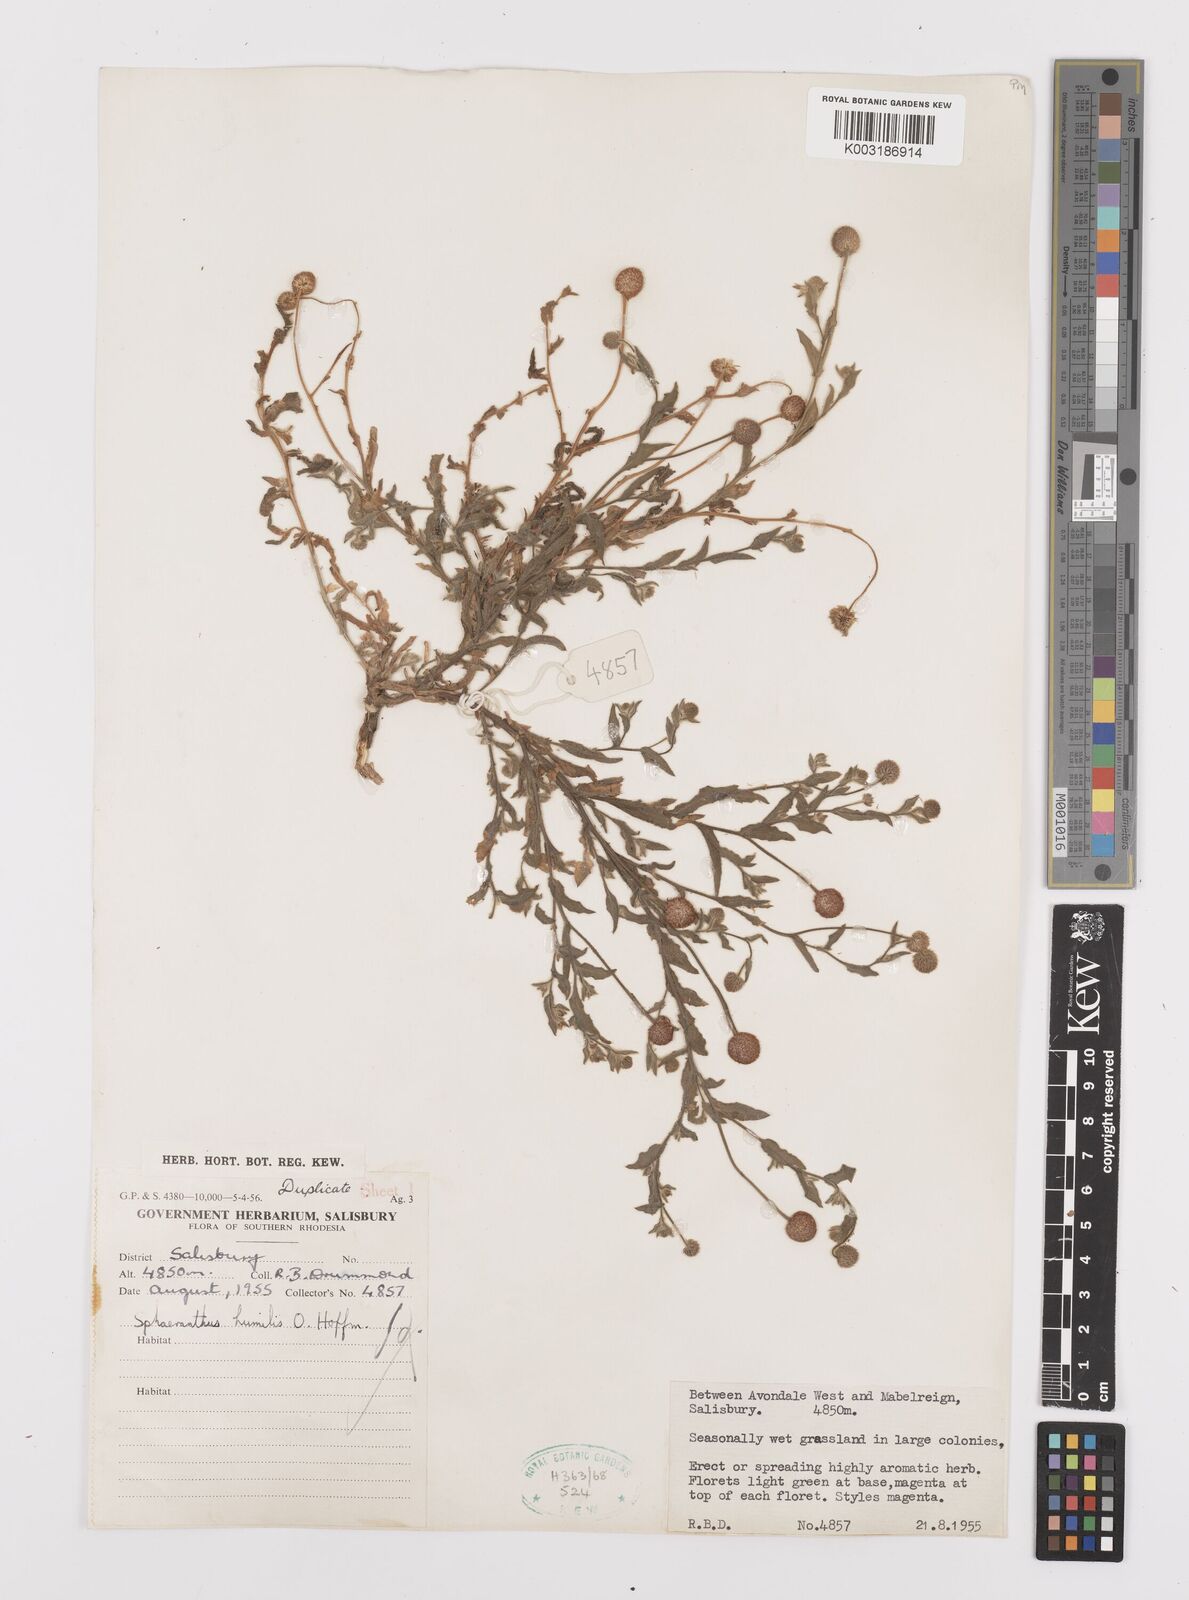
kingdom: Plantae
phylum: Tracheophyta
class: Magnoliopsida
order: Asterales
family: Asteraceae
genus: Sphaeranthus
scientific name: Sphaeranthus flexuosus
